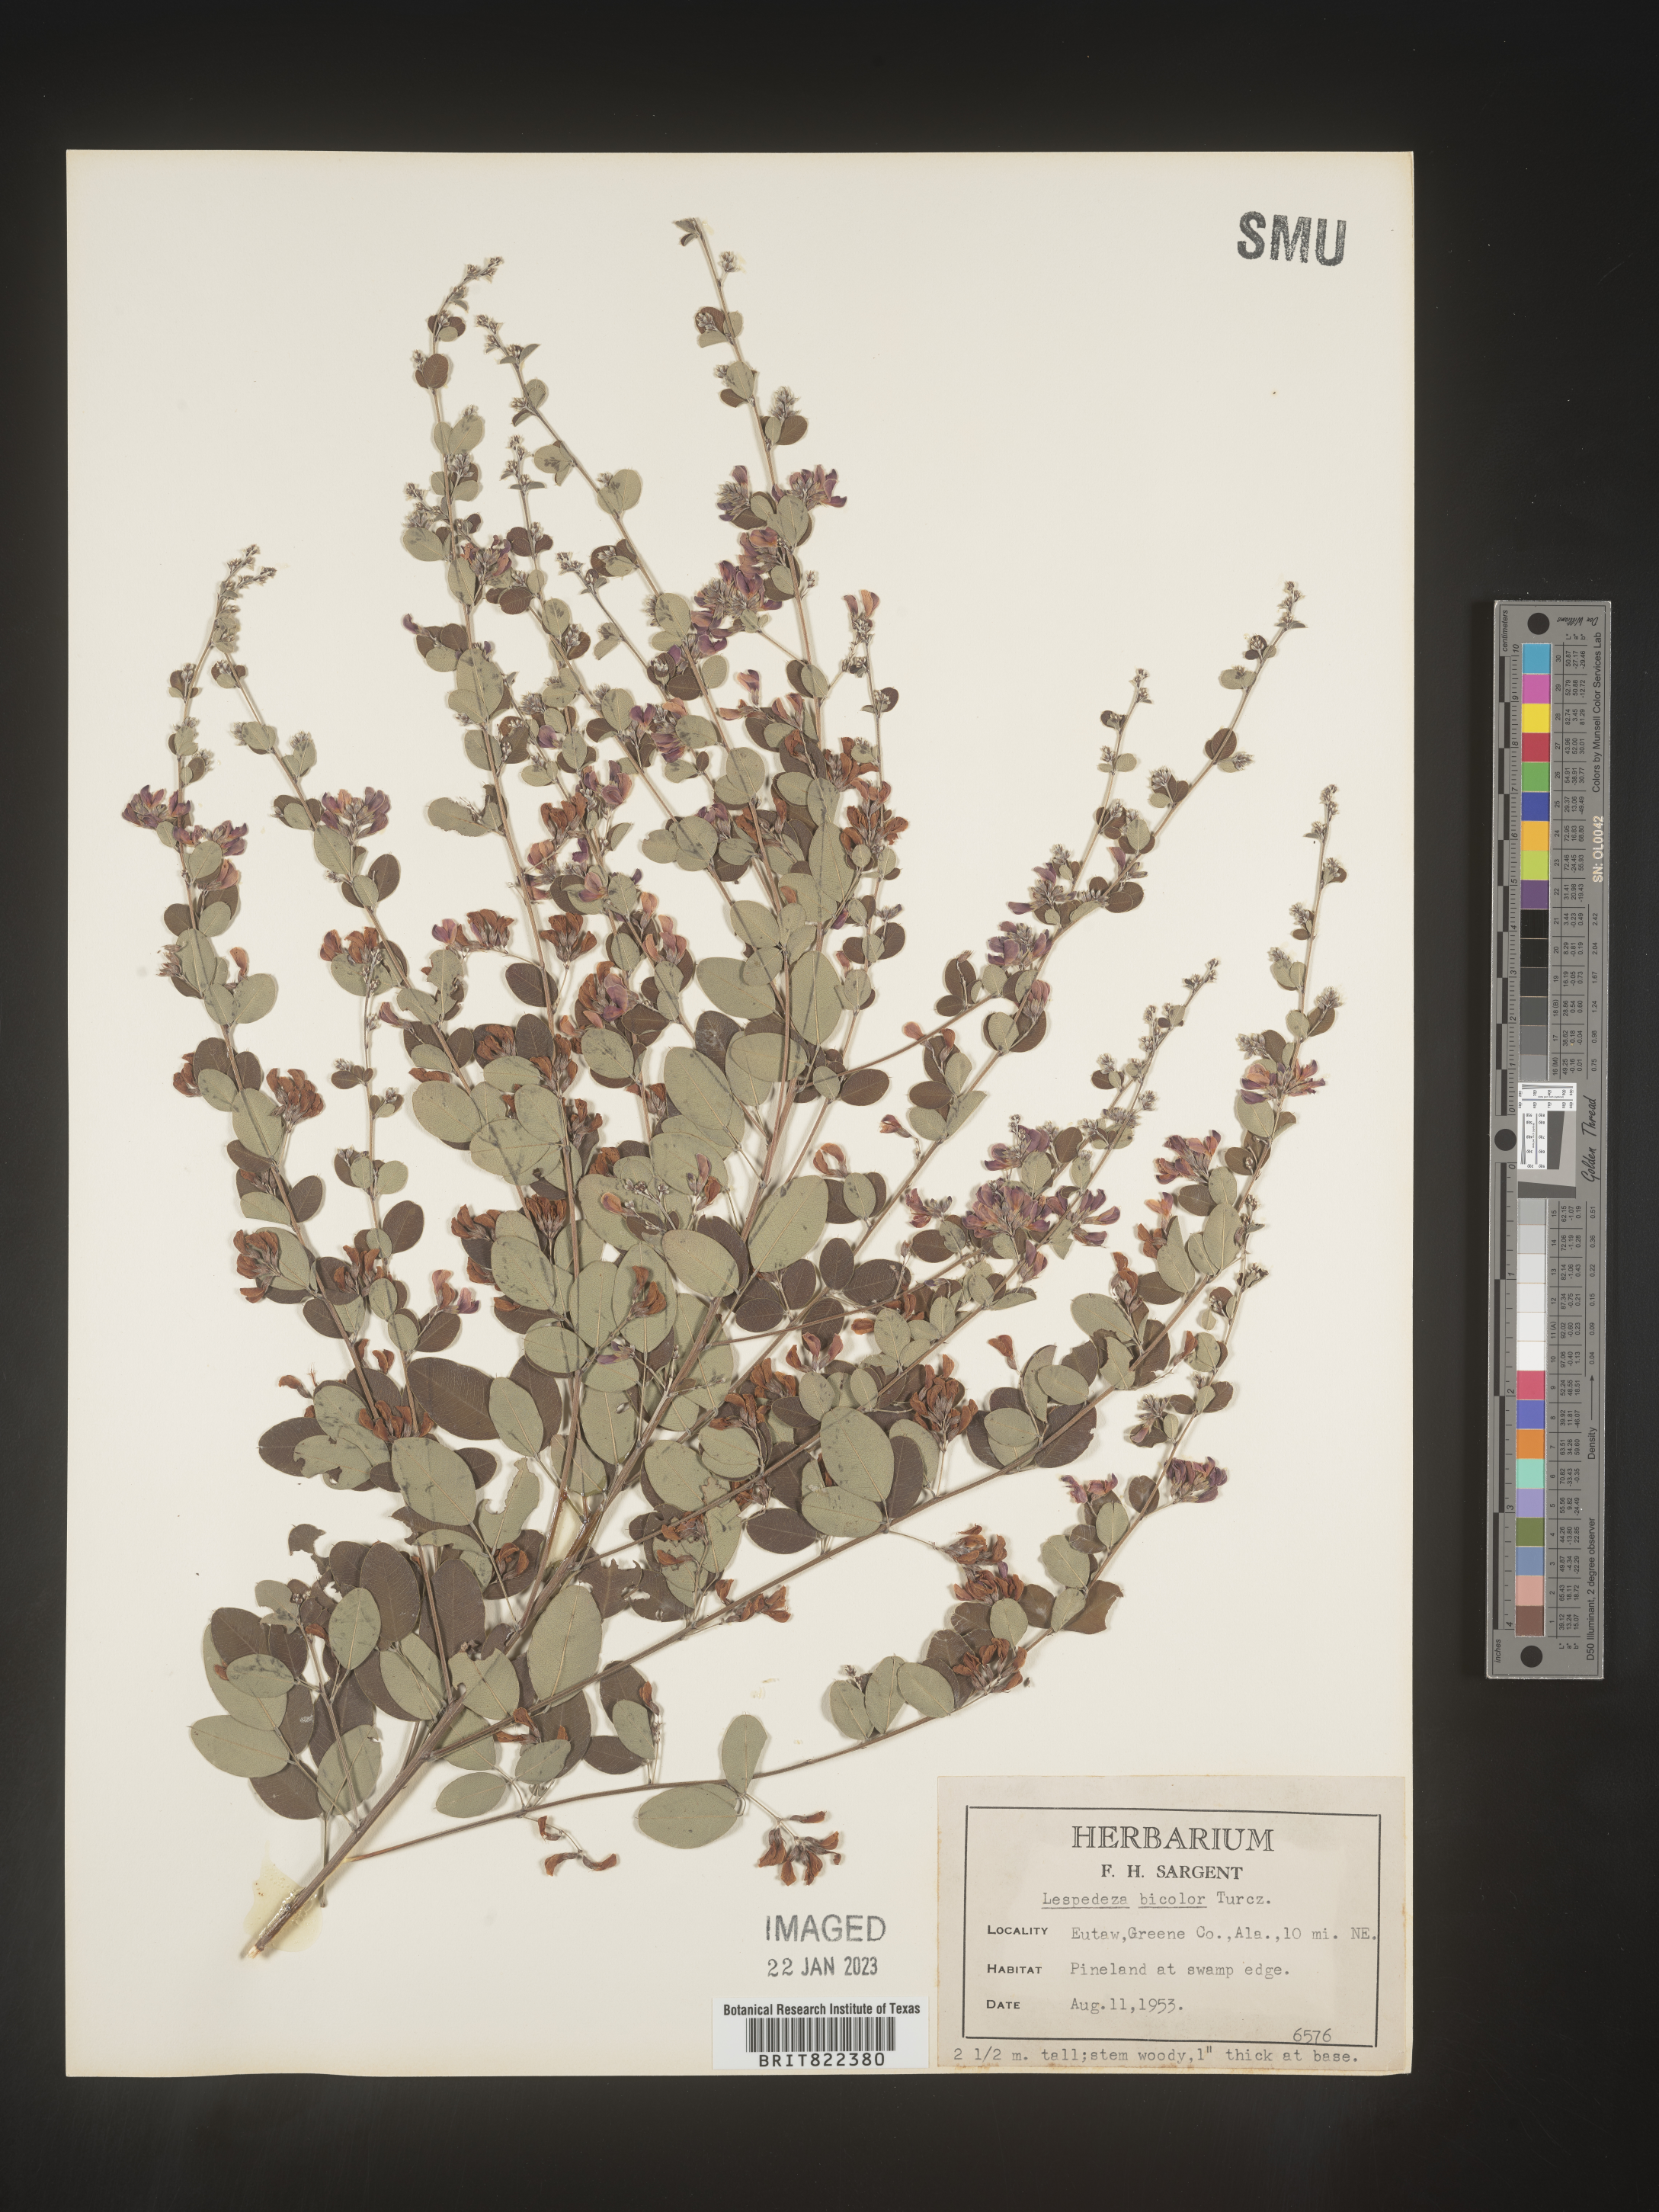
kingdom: Plantae
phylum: Tracheophyta
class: Magnoliopsida
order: Fabales
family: Fabaceae
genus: Lespedeza
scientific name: Lespedeza
